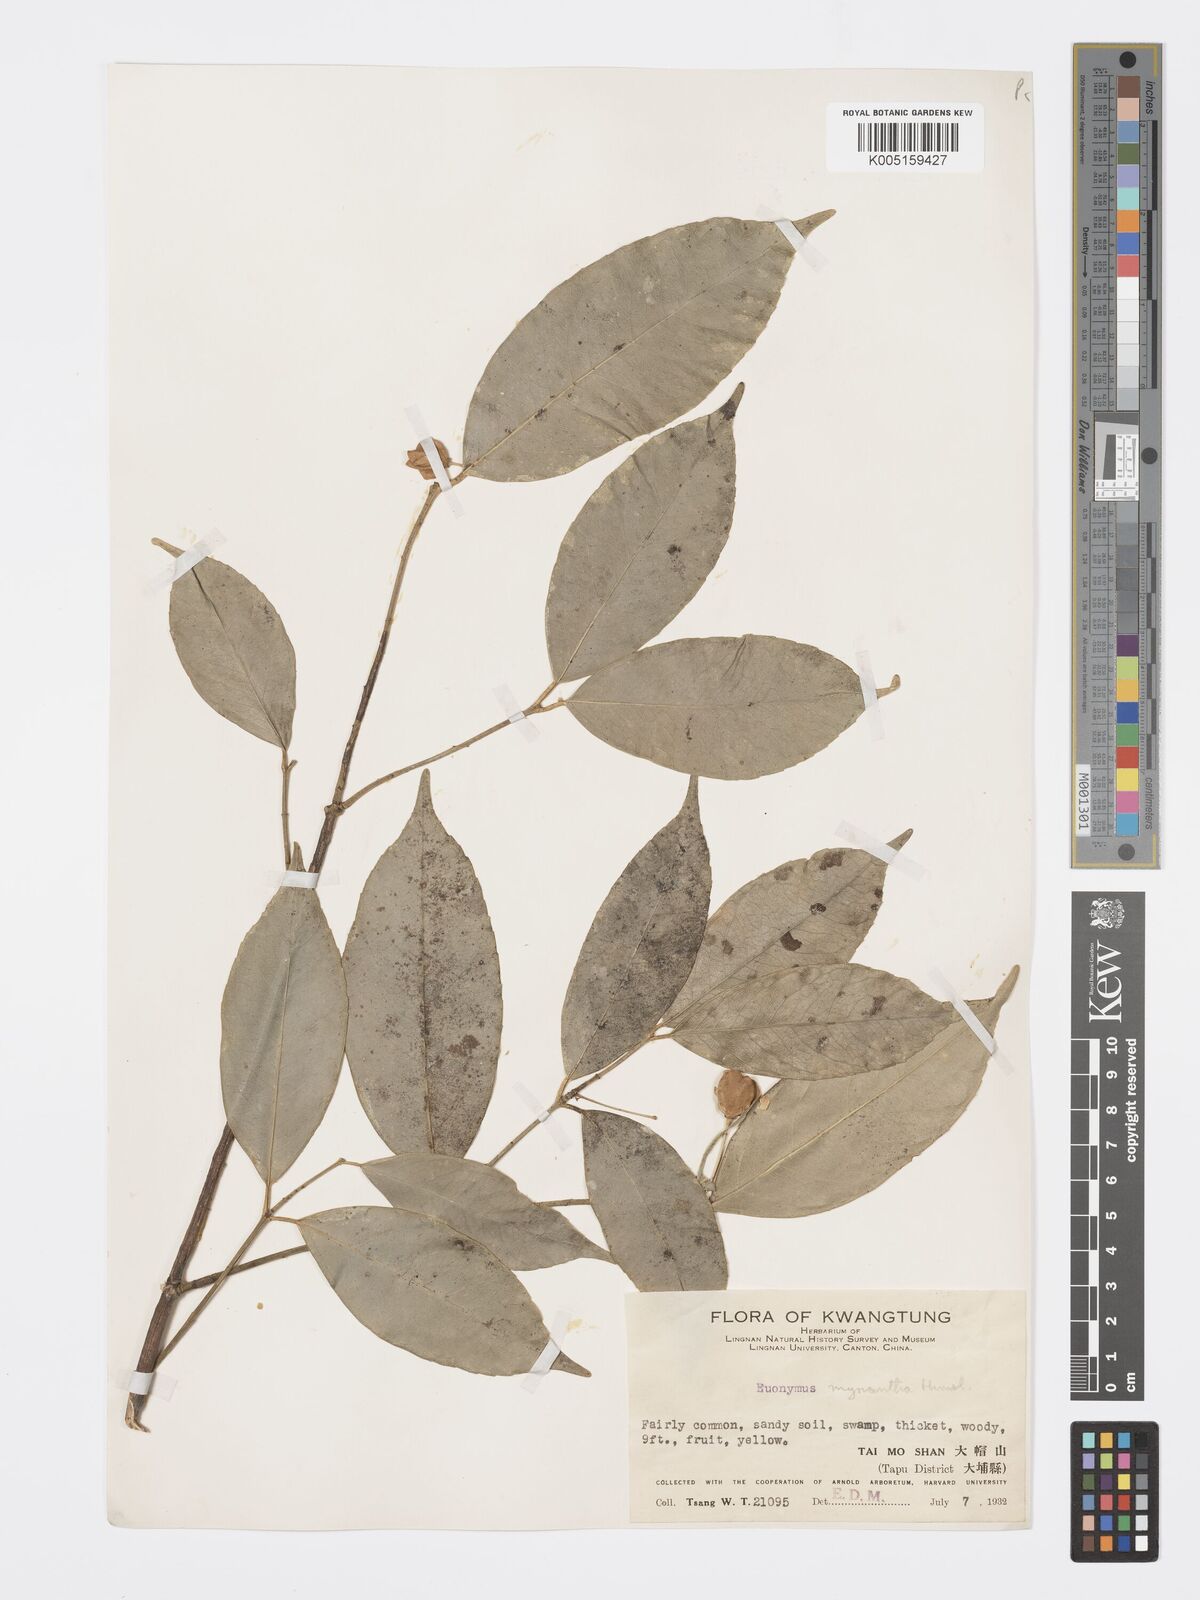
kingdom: Plantae
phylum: Tracheophyta
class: Magnoliopsida
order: Celastrales
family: Celastraceae
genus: Euonymus
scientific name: Euonymus myrianthus
